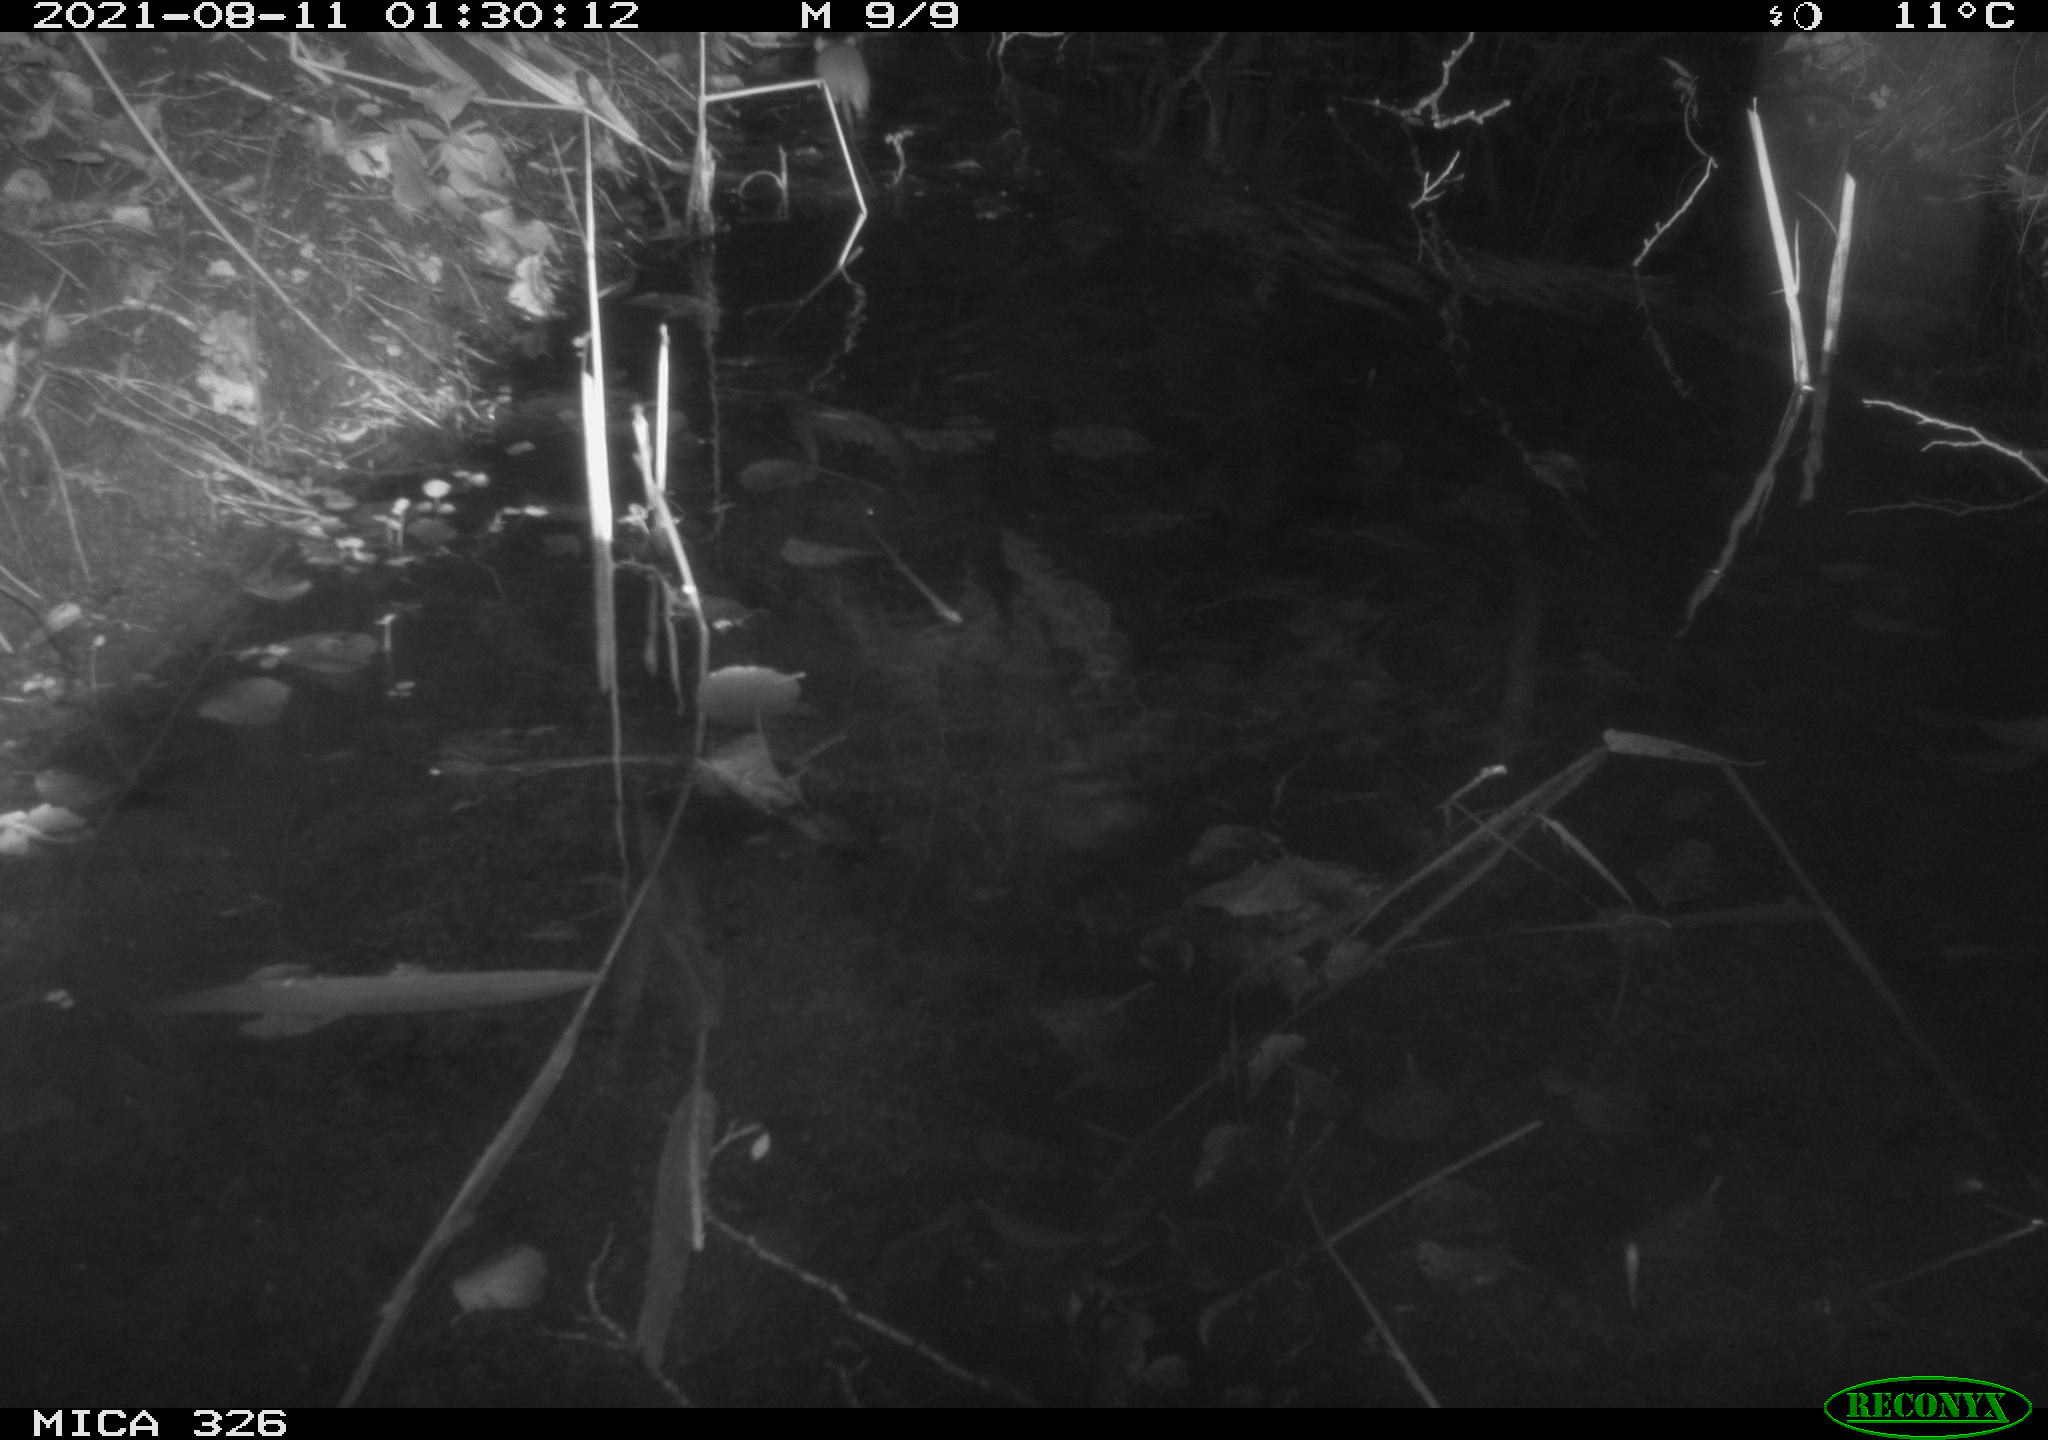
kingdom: Animalia
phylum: Chordata
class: Mammalia
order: Rodentia
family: Muridae
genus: Rattus
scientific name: Rattus norvegicus
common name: Brown rat
